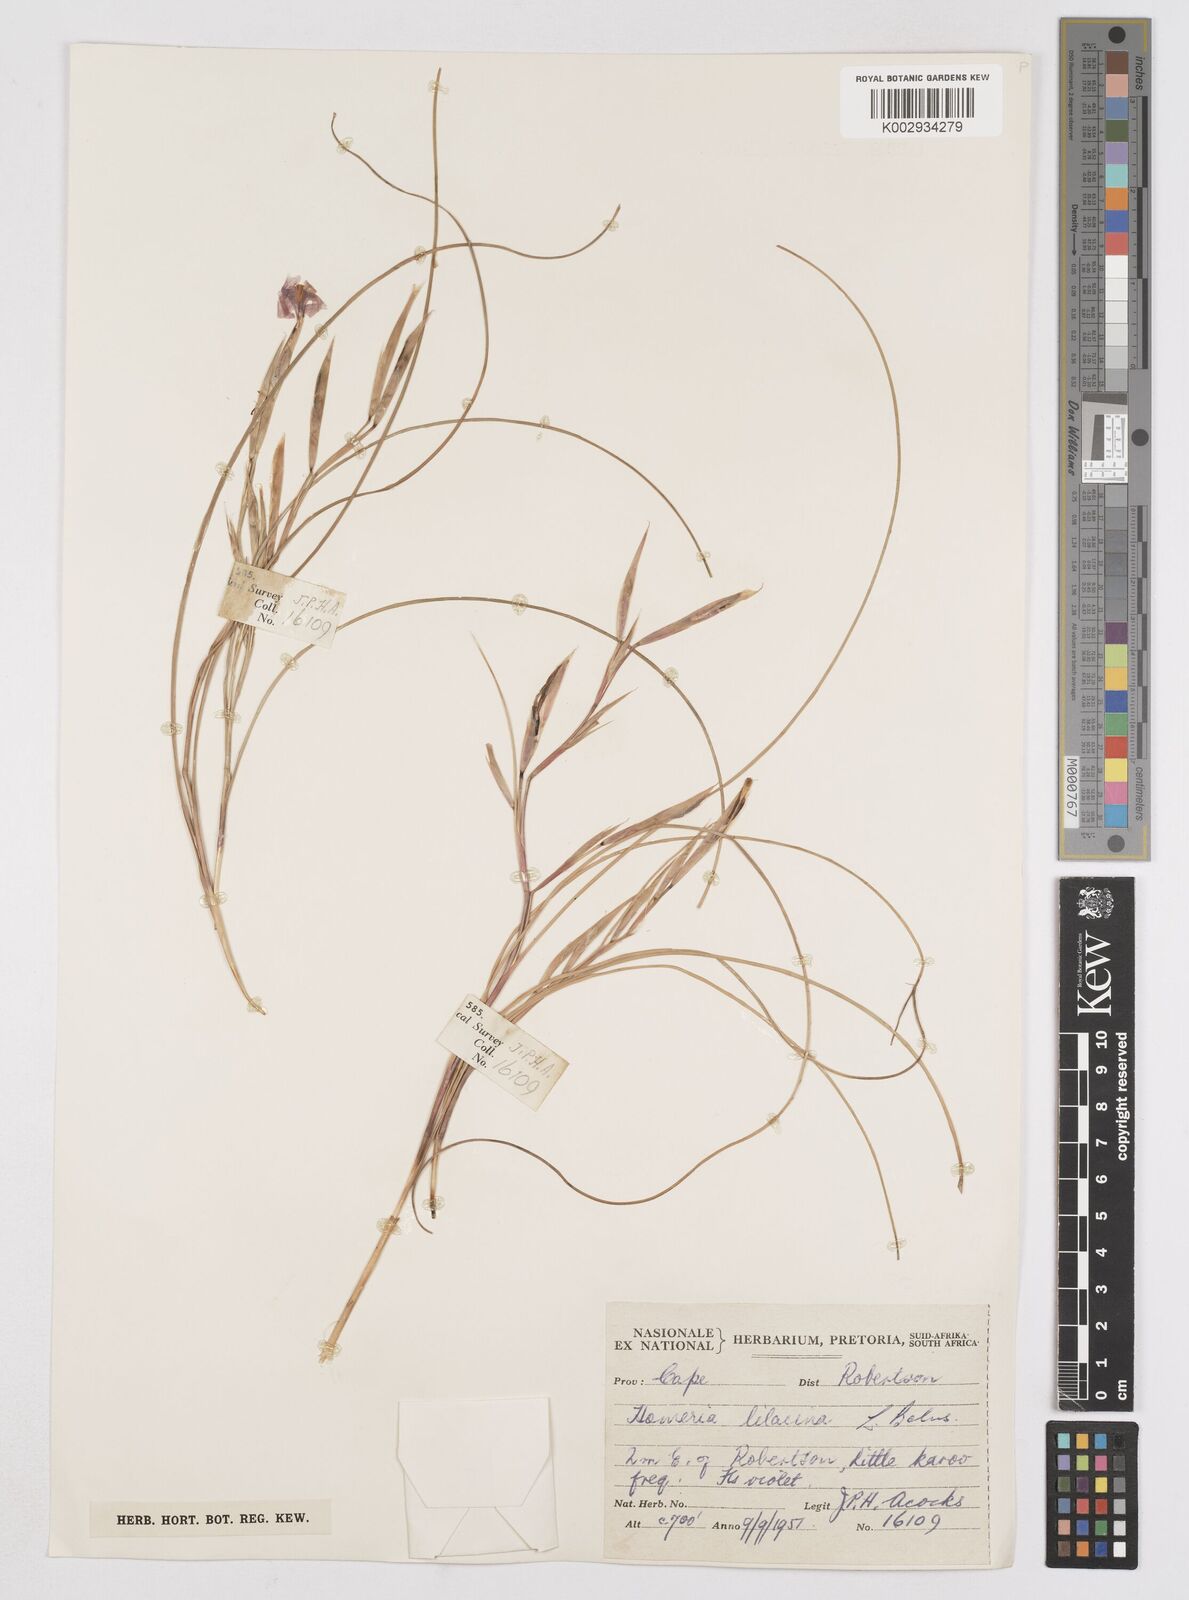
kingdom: Plantae
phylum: Tracheophyta
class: Liliopsida
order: Asparagales
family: Iridaceae
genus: Moraea
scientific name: Moraea
